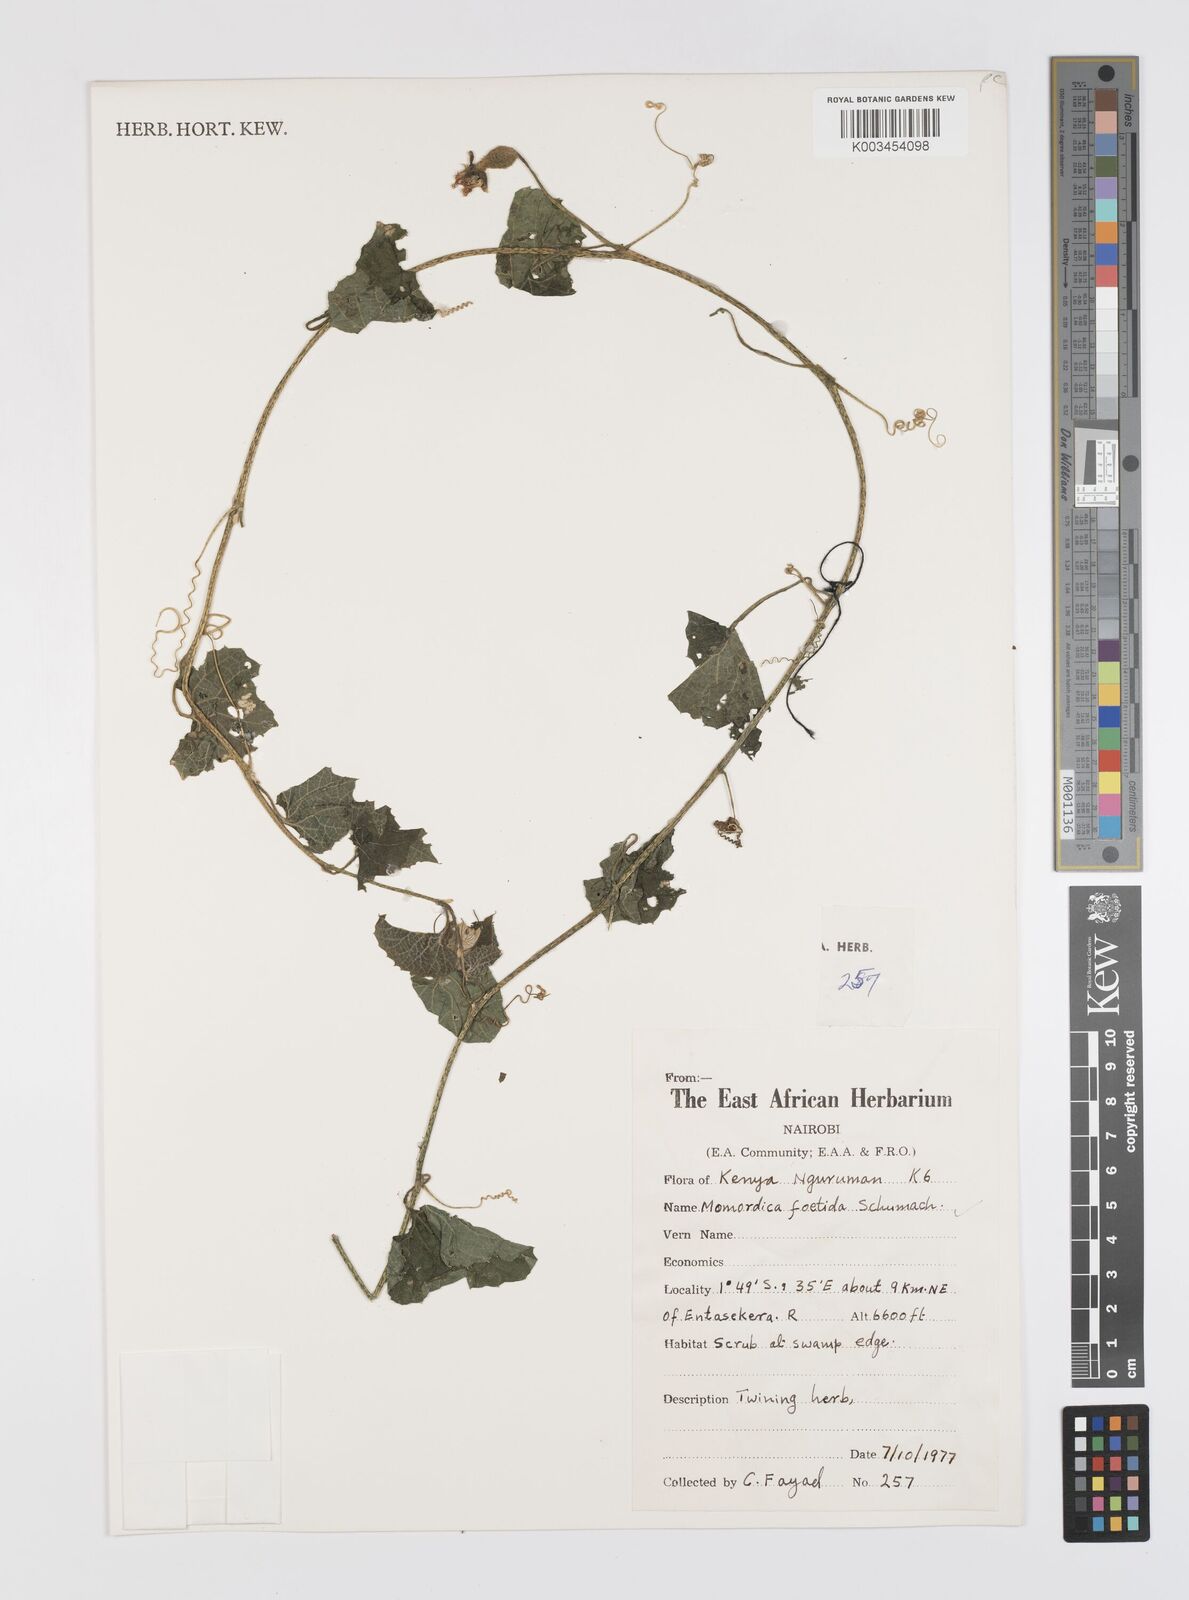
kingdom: Plantae
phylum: Tracheophyta
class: Magnoliopsida
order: Cucurbitales
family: Cucurbitaceae
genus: Momordica
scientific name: Momordica foetida
